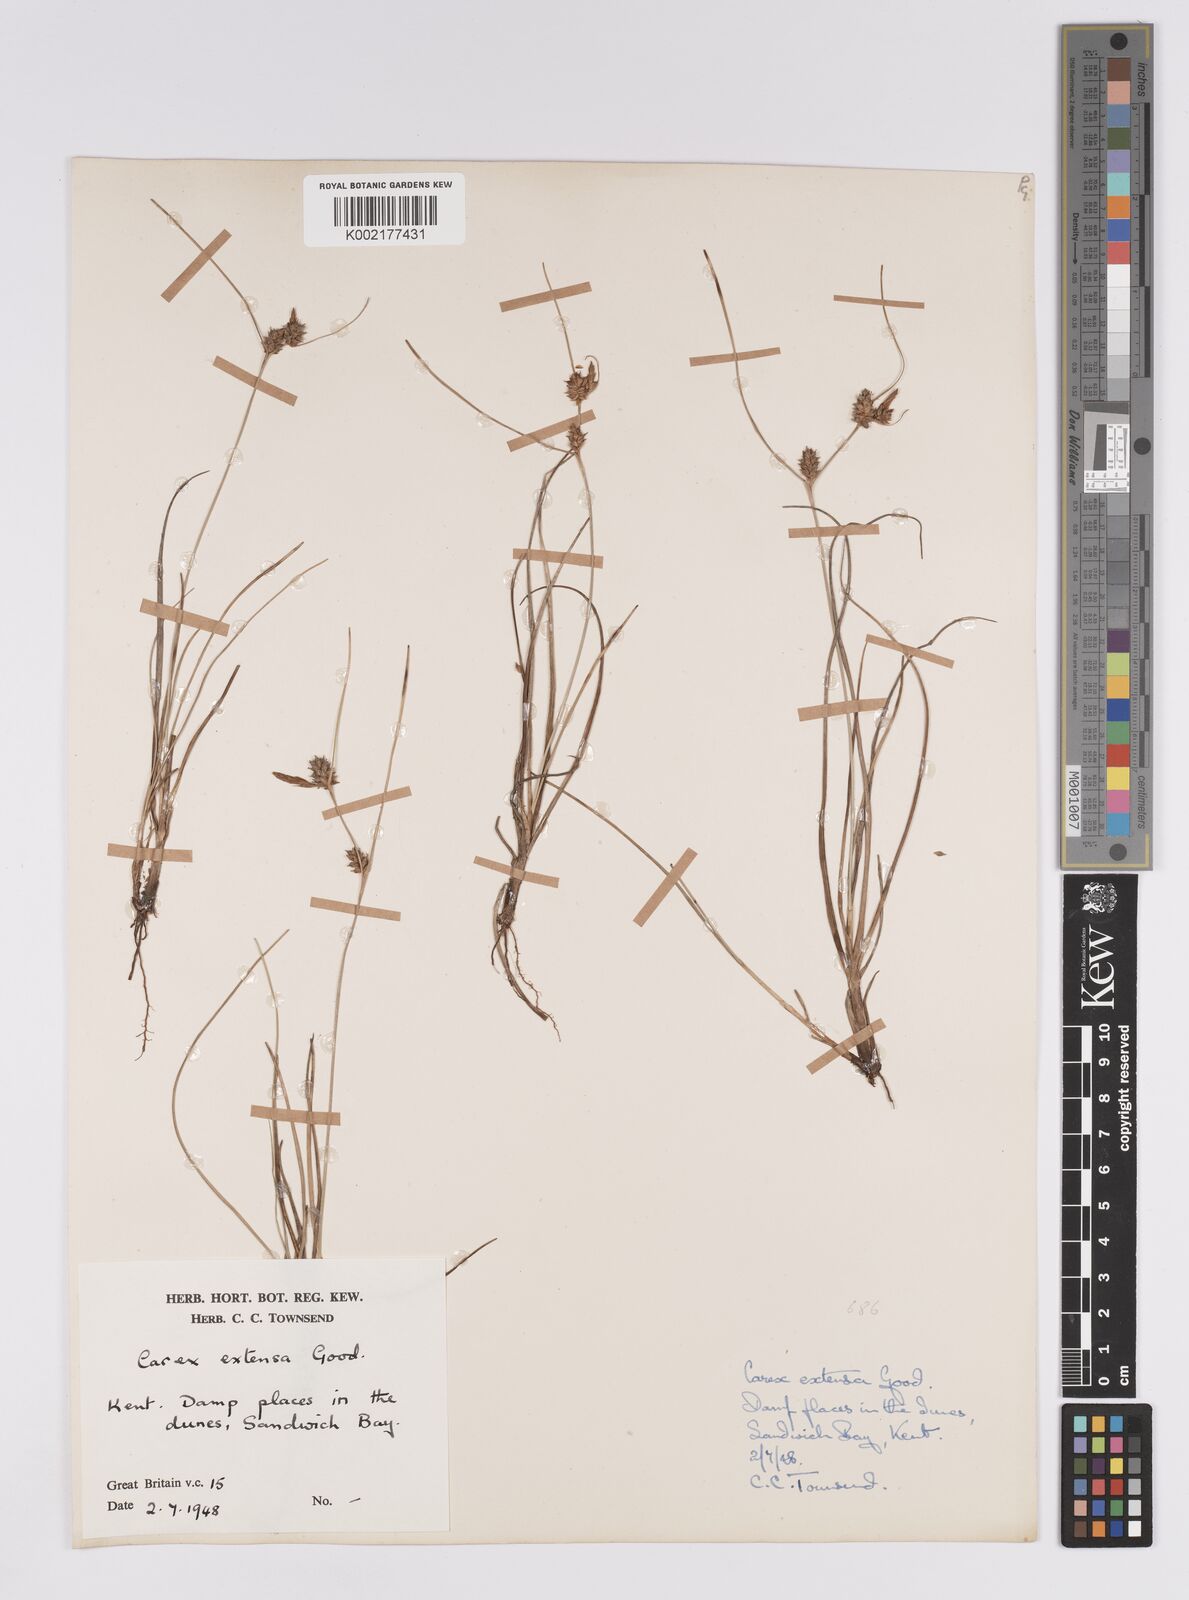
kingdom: Plantae
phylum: Tracheophyta
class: Liliopsida
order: Poales
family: Cyperaceae
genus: Carex
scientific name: Carex extensa
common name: Long-bracted sedge
